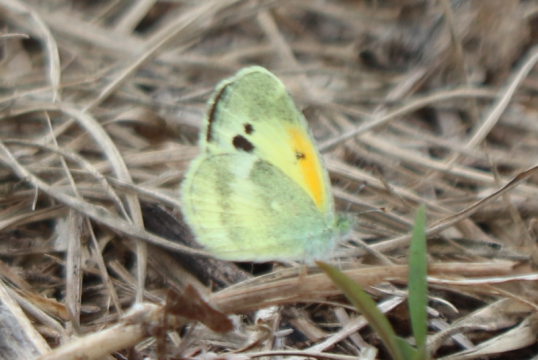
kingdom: Animalia
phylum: Arthropoda
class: Insecta
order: Lepidoptera
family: Pieridae
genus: Nathalis
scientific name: Nathalis iole
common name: Dainty Sulphur
